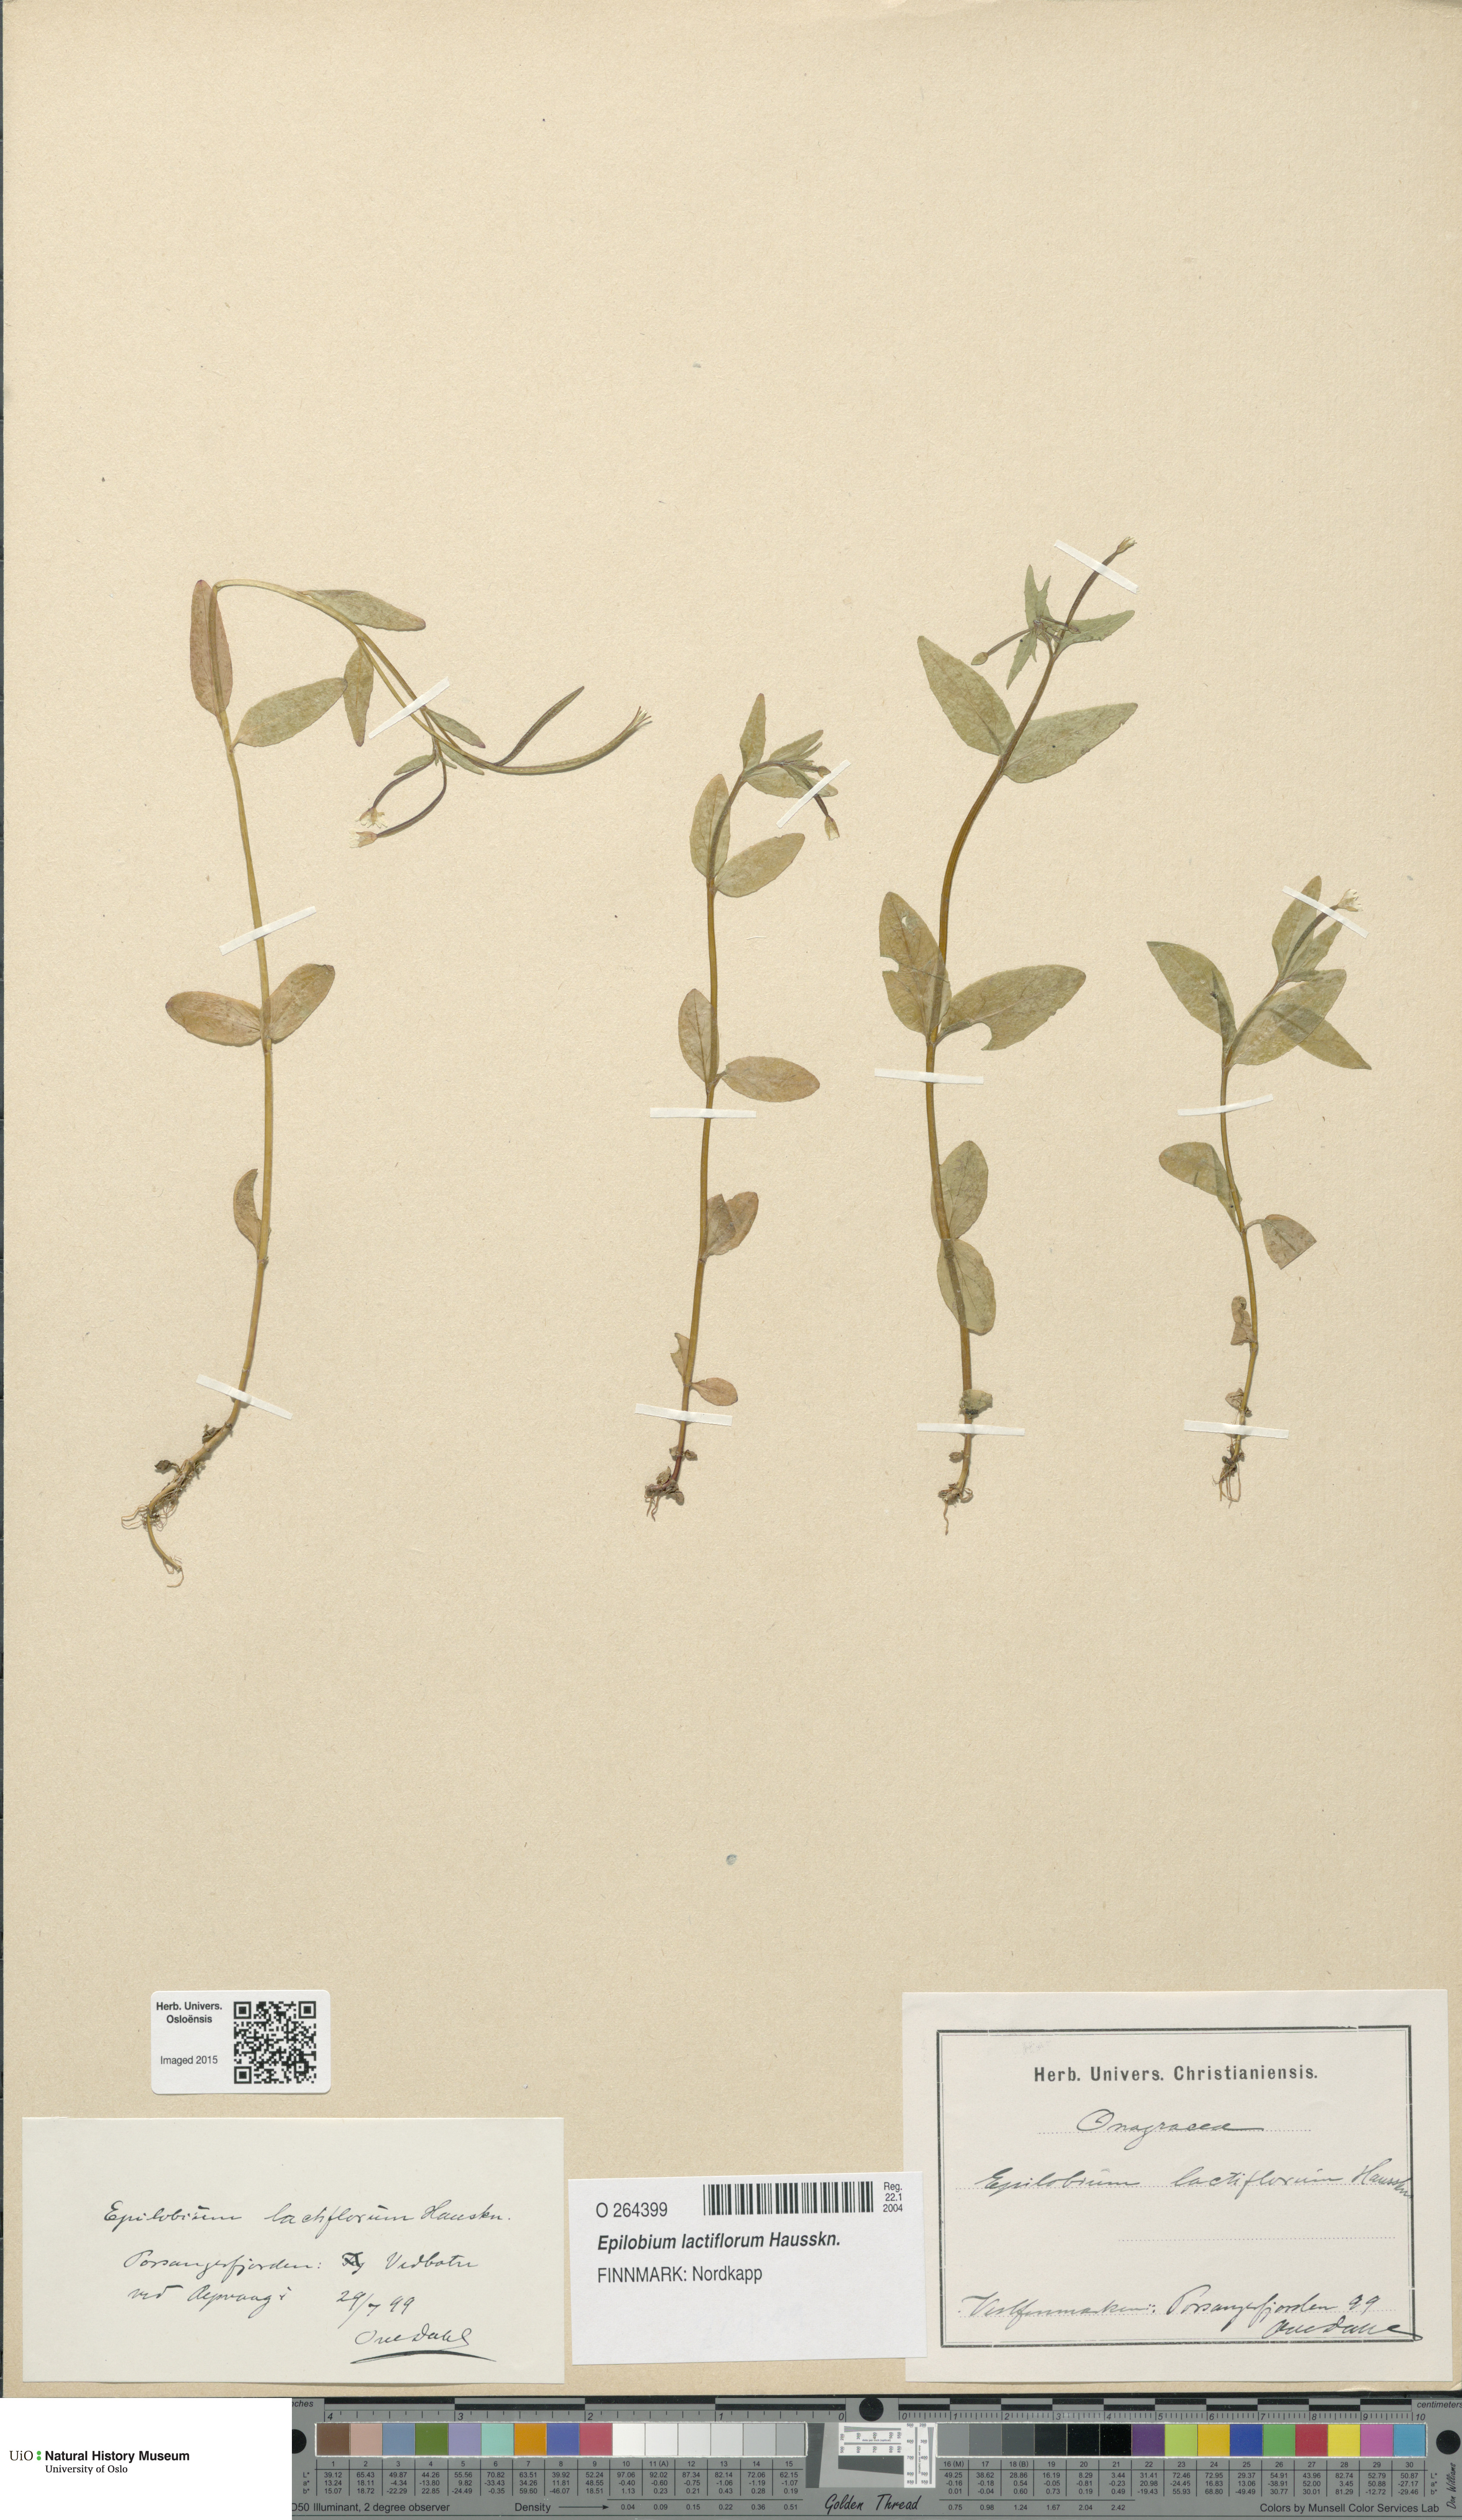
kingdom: Plantae
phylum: Tracheophyta
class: Magnoliopsida
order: Myrtales
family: Onagraceae
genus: Epilobium
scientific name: Epilobium lactiflorum
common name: Milkflower willowherb
